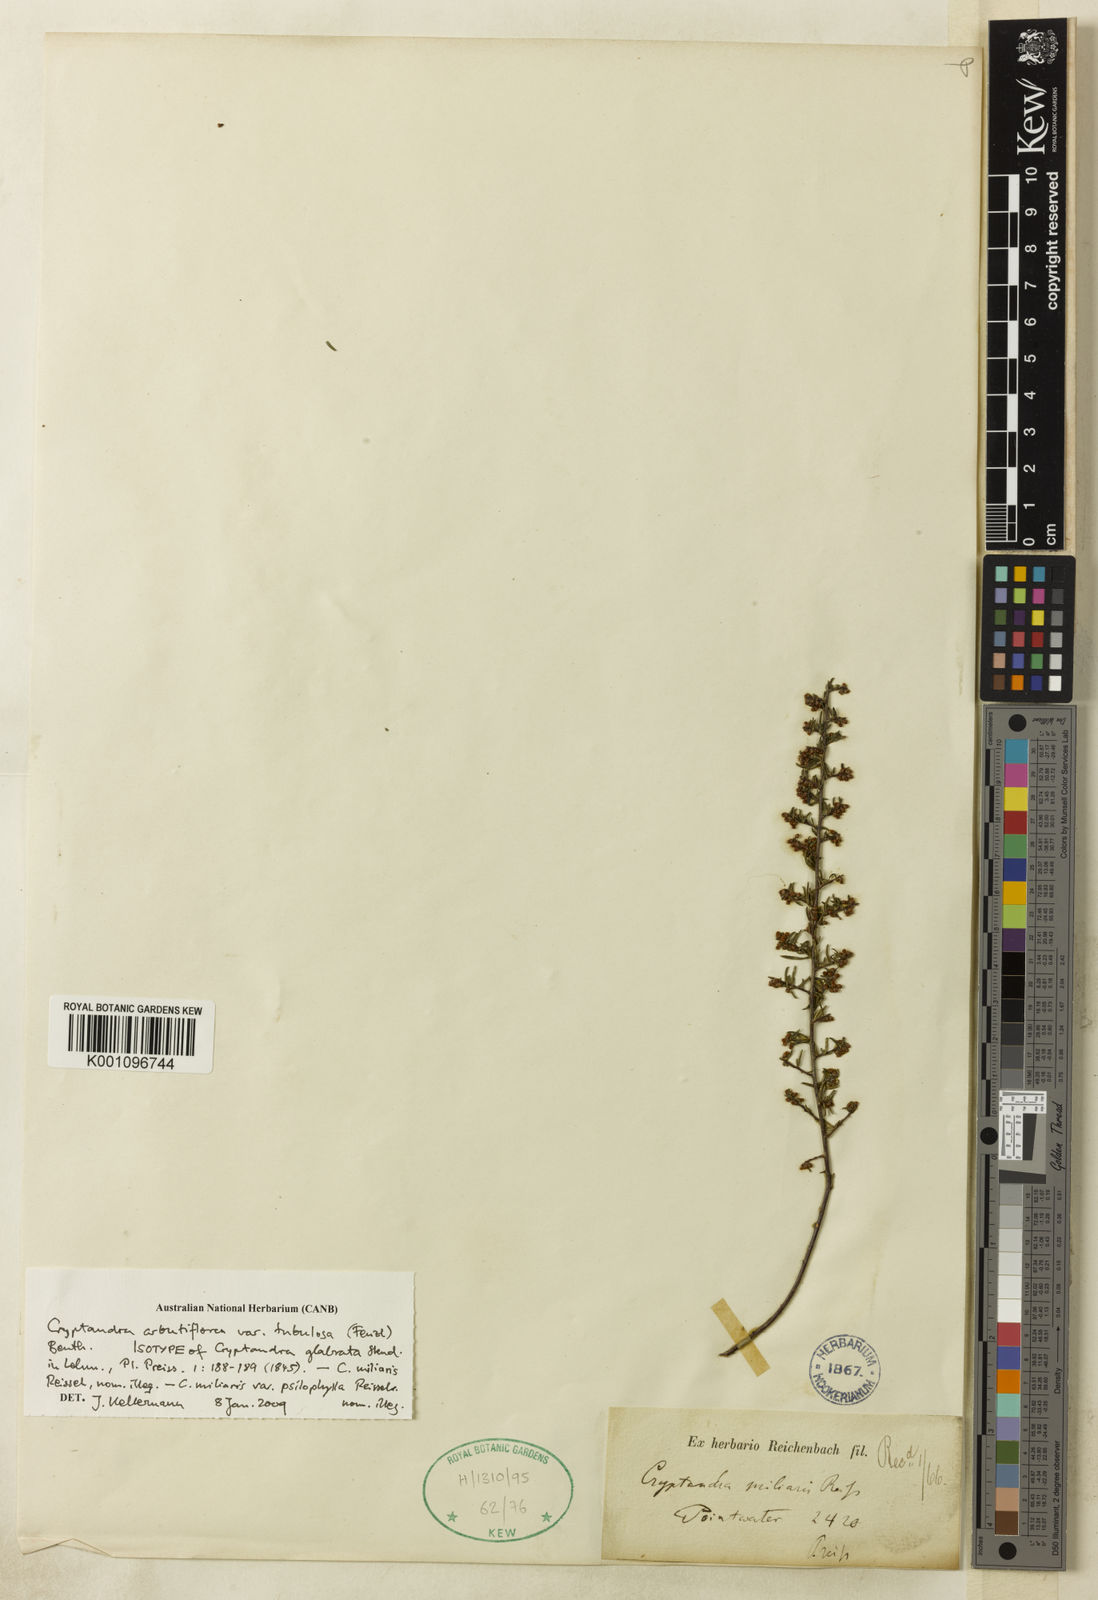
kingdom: Plantae
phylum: Tracheophyta
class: Magnoliopsida
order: Rosales
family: Rhamnaceae
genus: Cryptandra
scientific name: Cryptandra tubulosa
